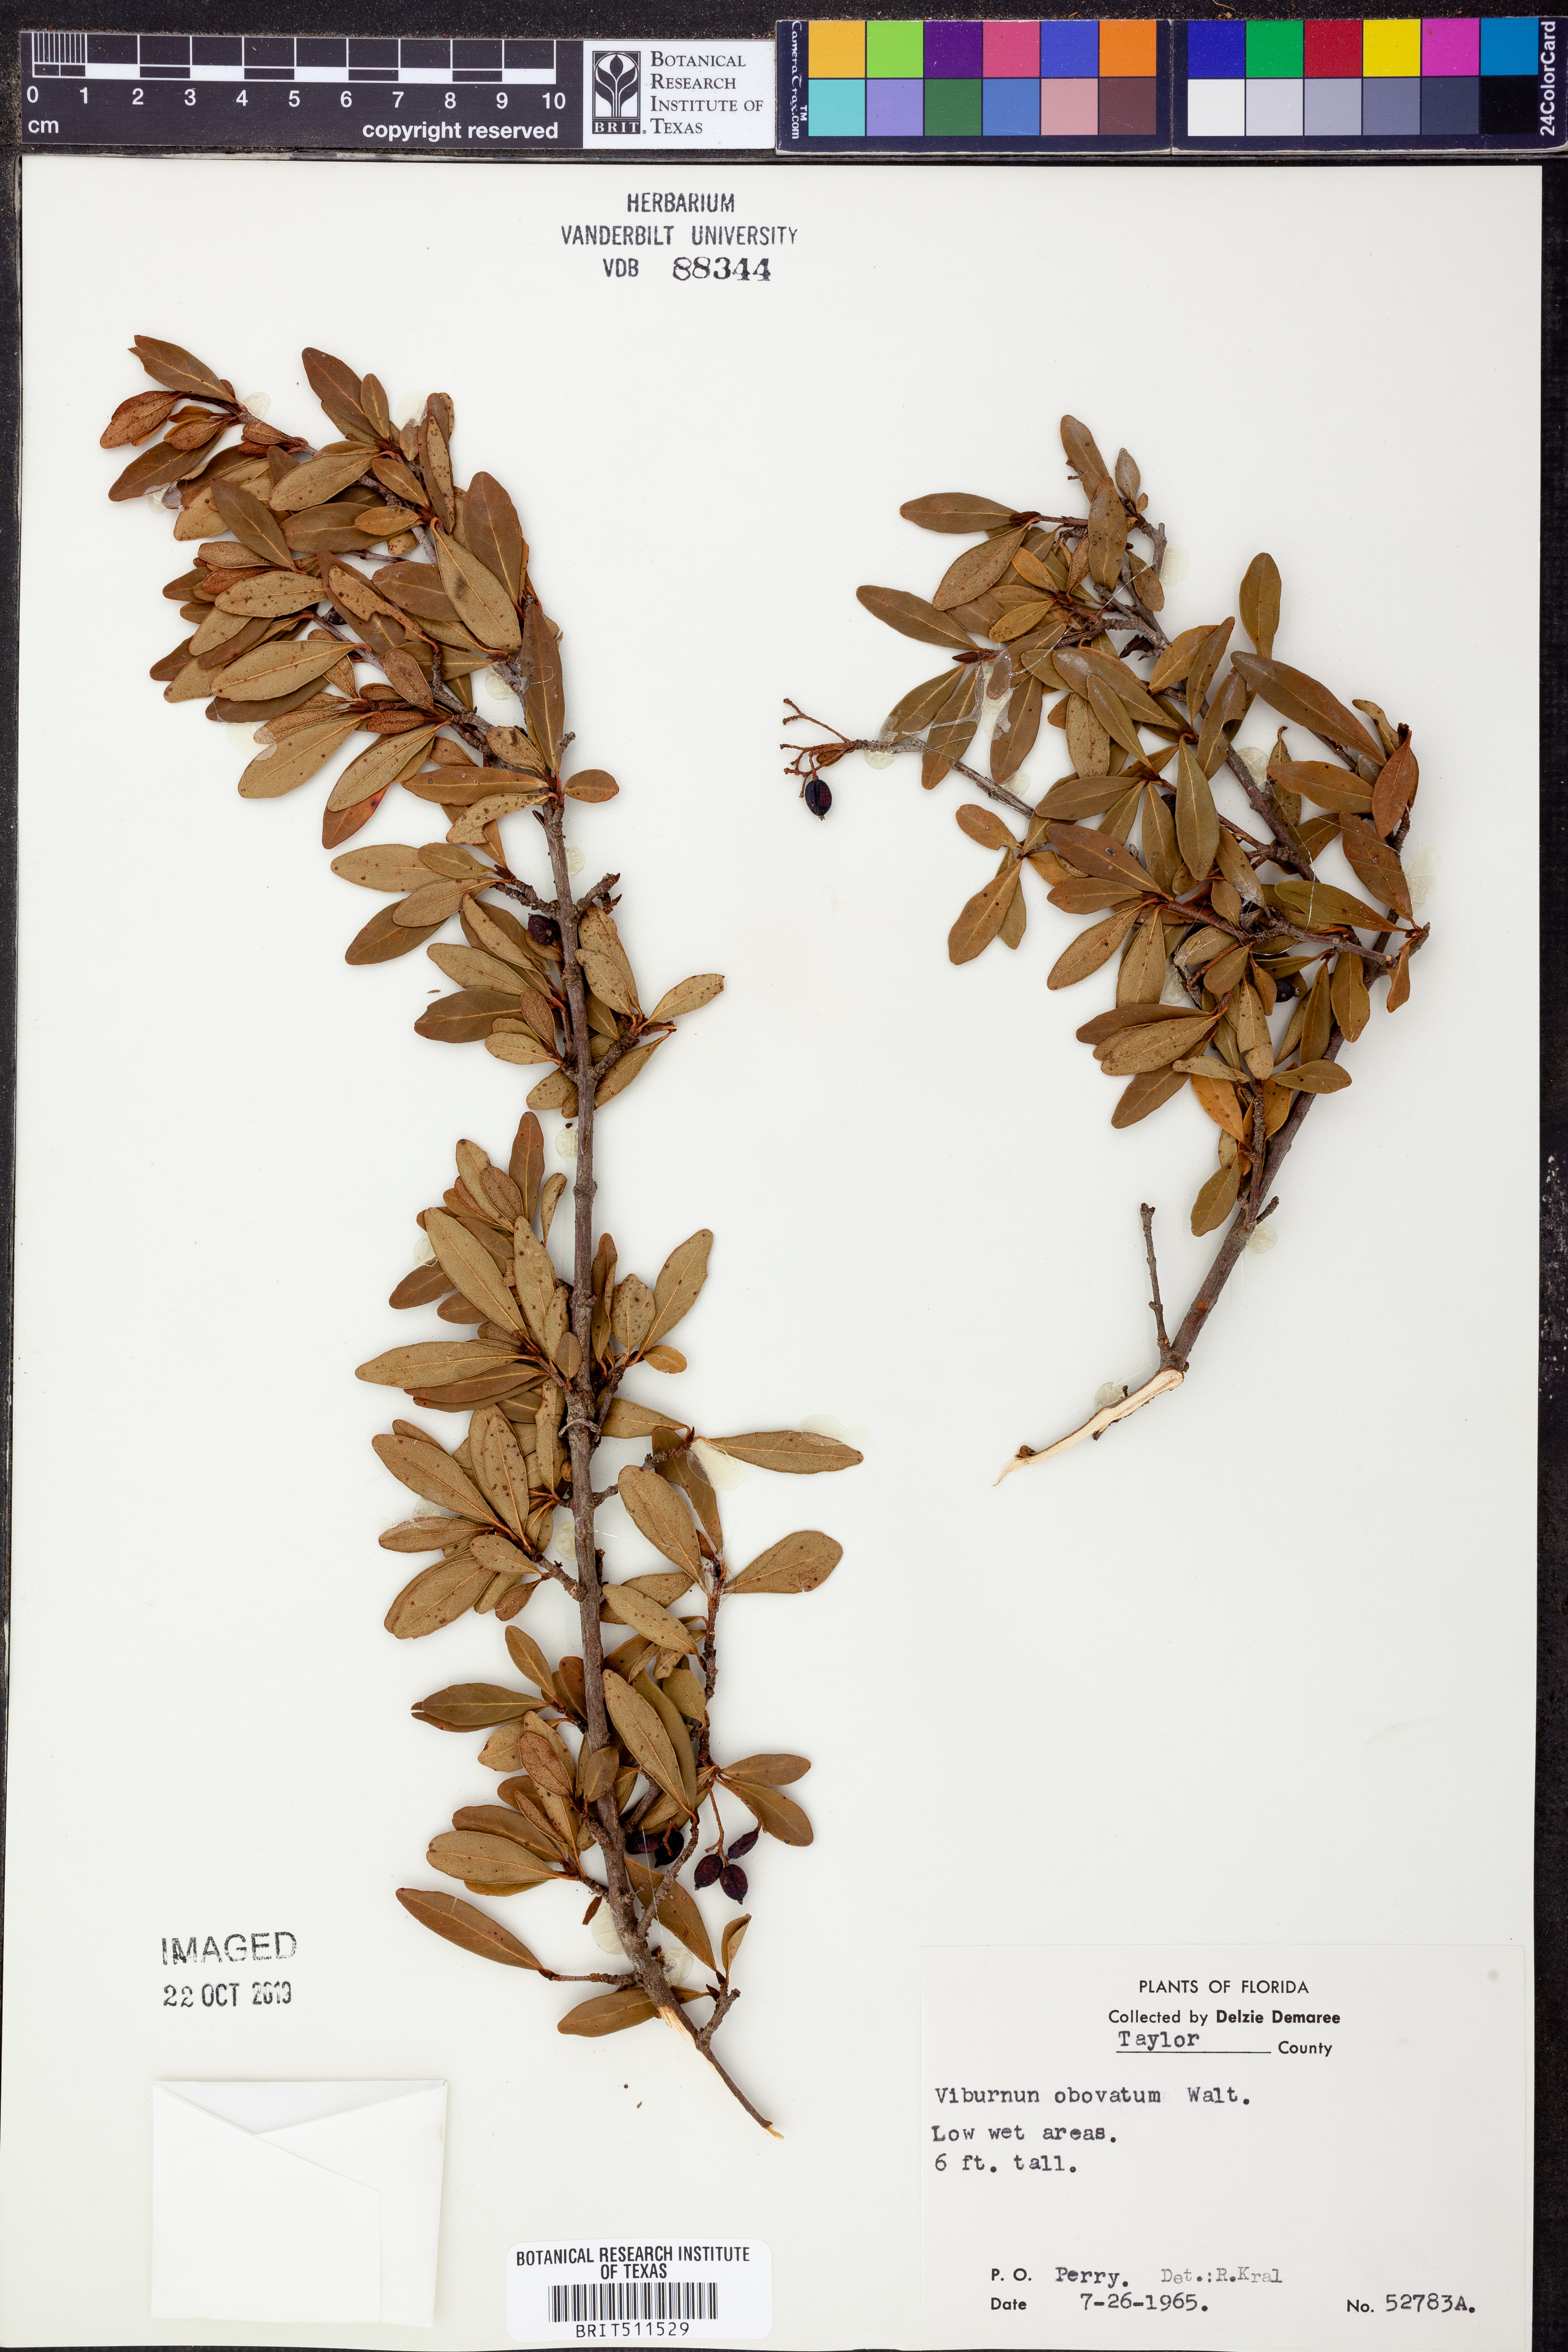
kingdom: Plantae
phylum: Tracheophyta
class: Magnoliopsida
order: Dipsacales
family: Viburnaceae
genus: Viburnum
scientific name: Viburnum obovatum
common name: Walter's viburnum
